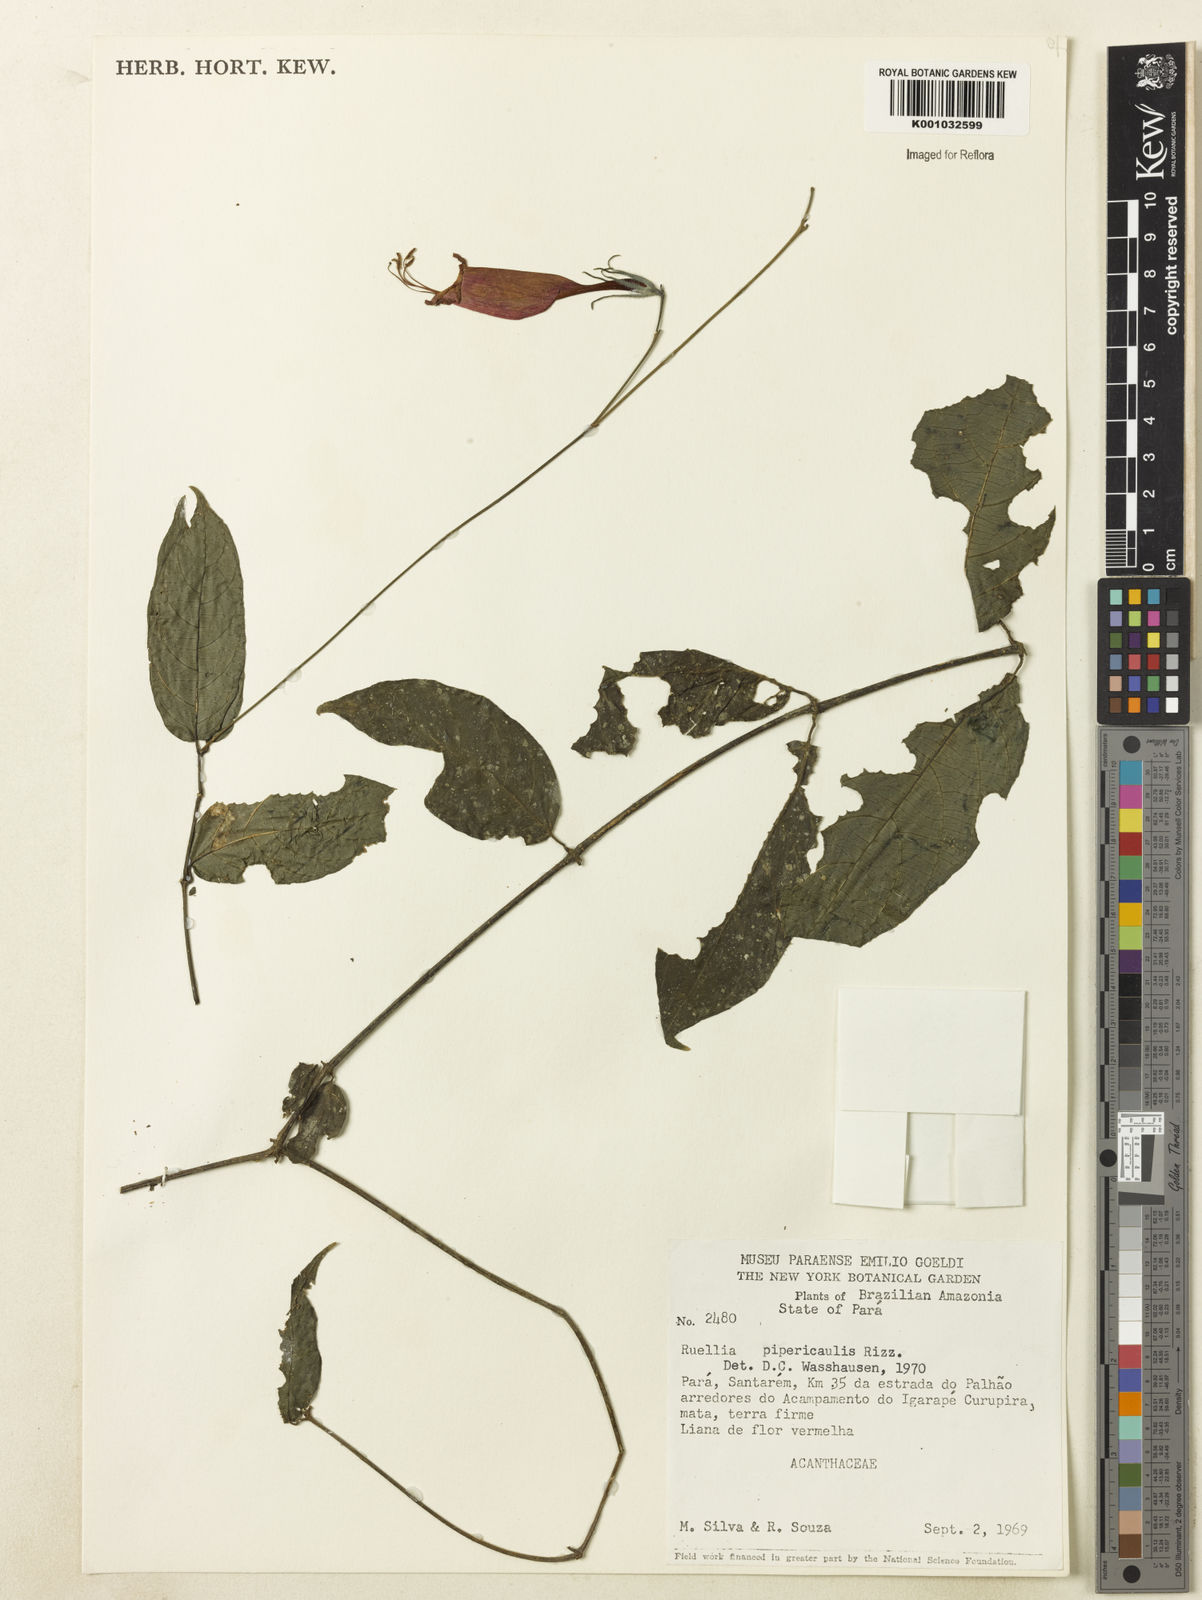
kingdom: Plantae
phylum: Tracheophyta
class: Magnoliopsida
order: Lamiales
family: Acanthaceae
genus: Ruellia
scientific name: Ruellia inflata
